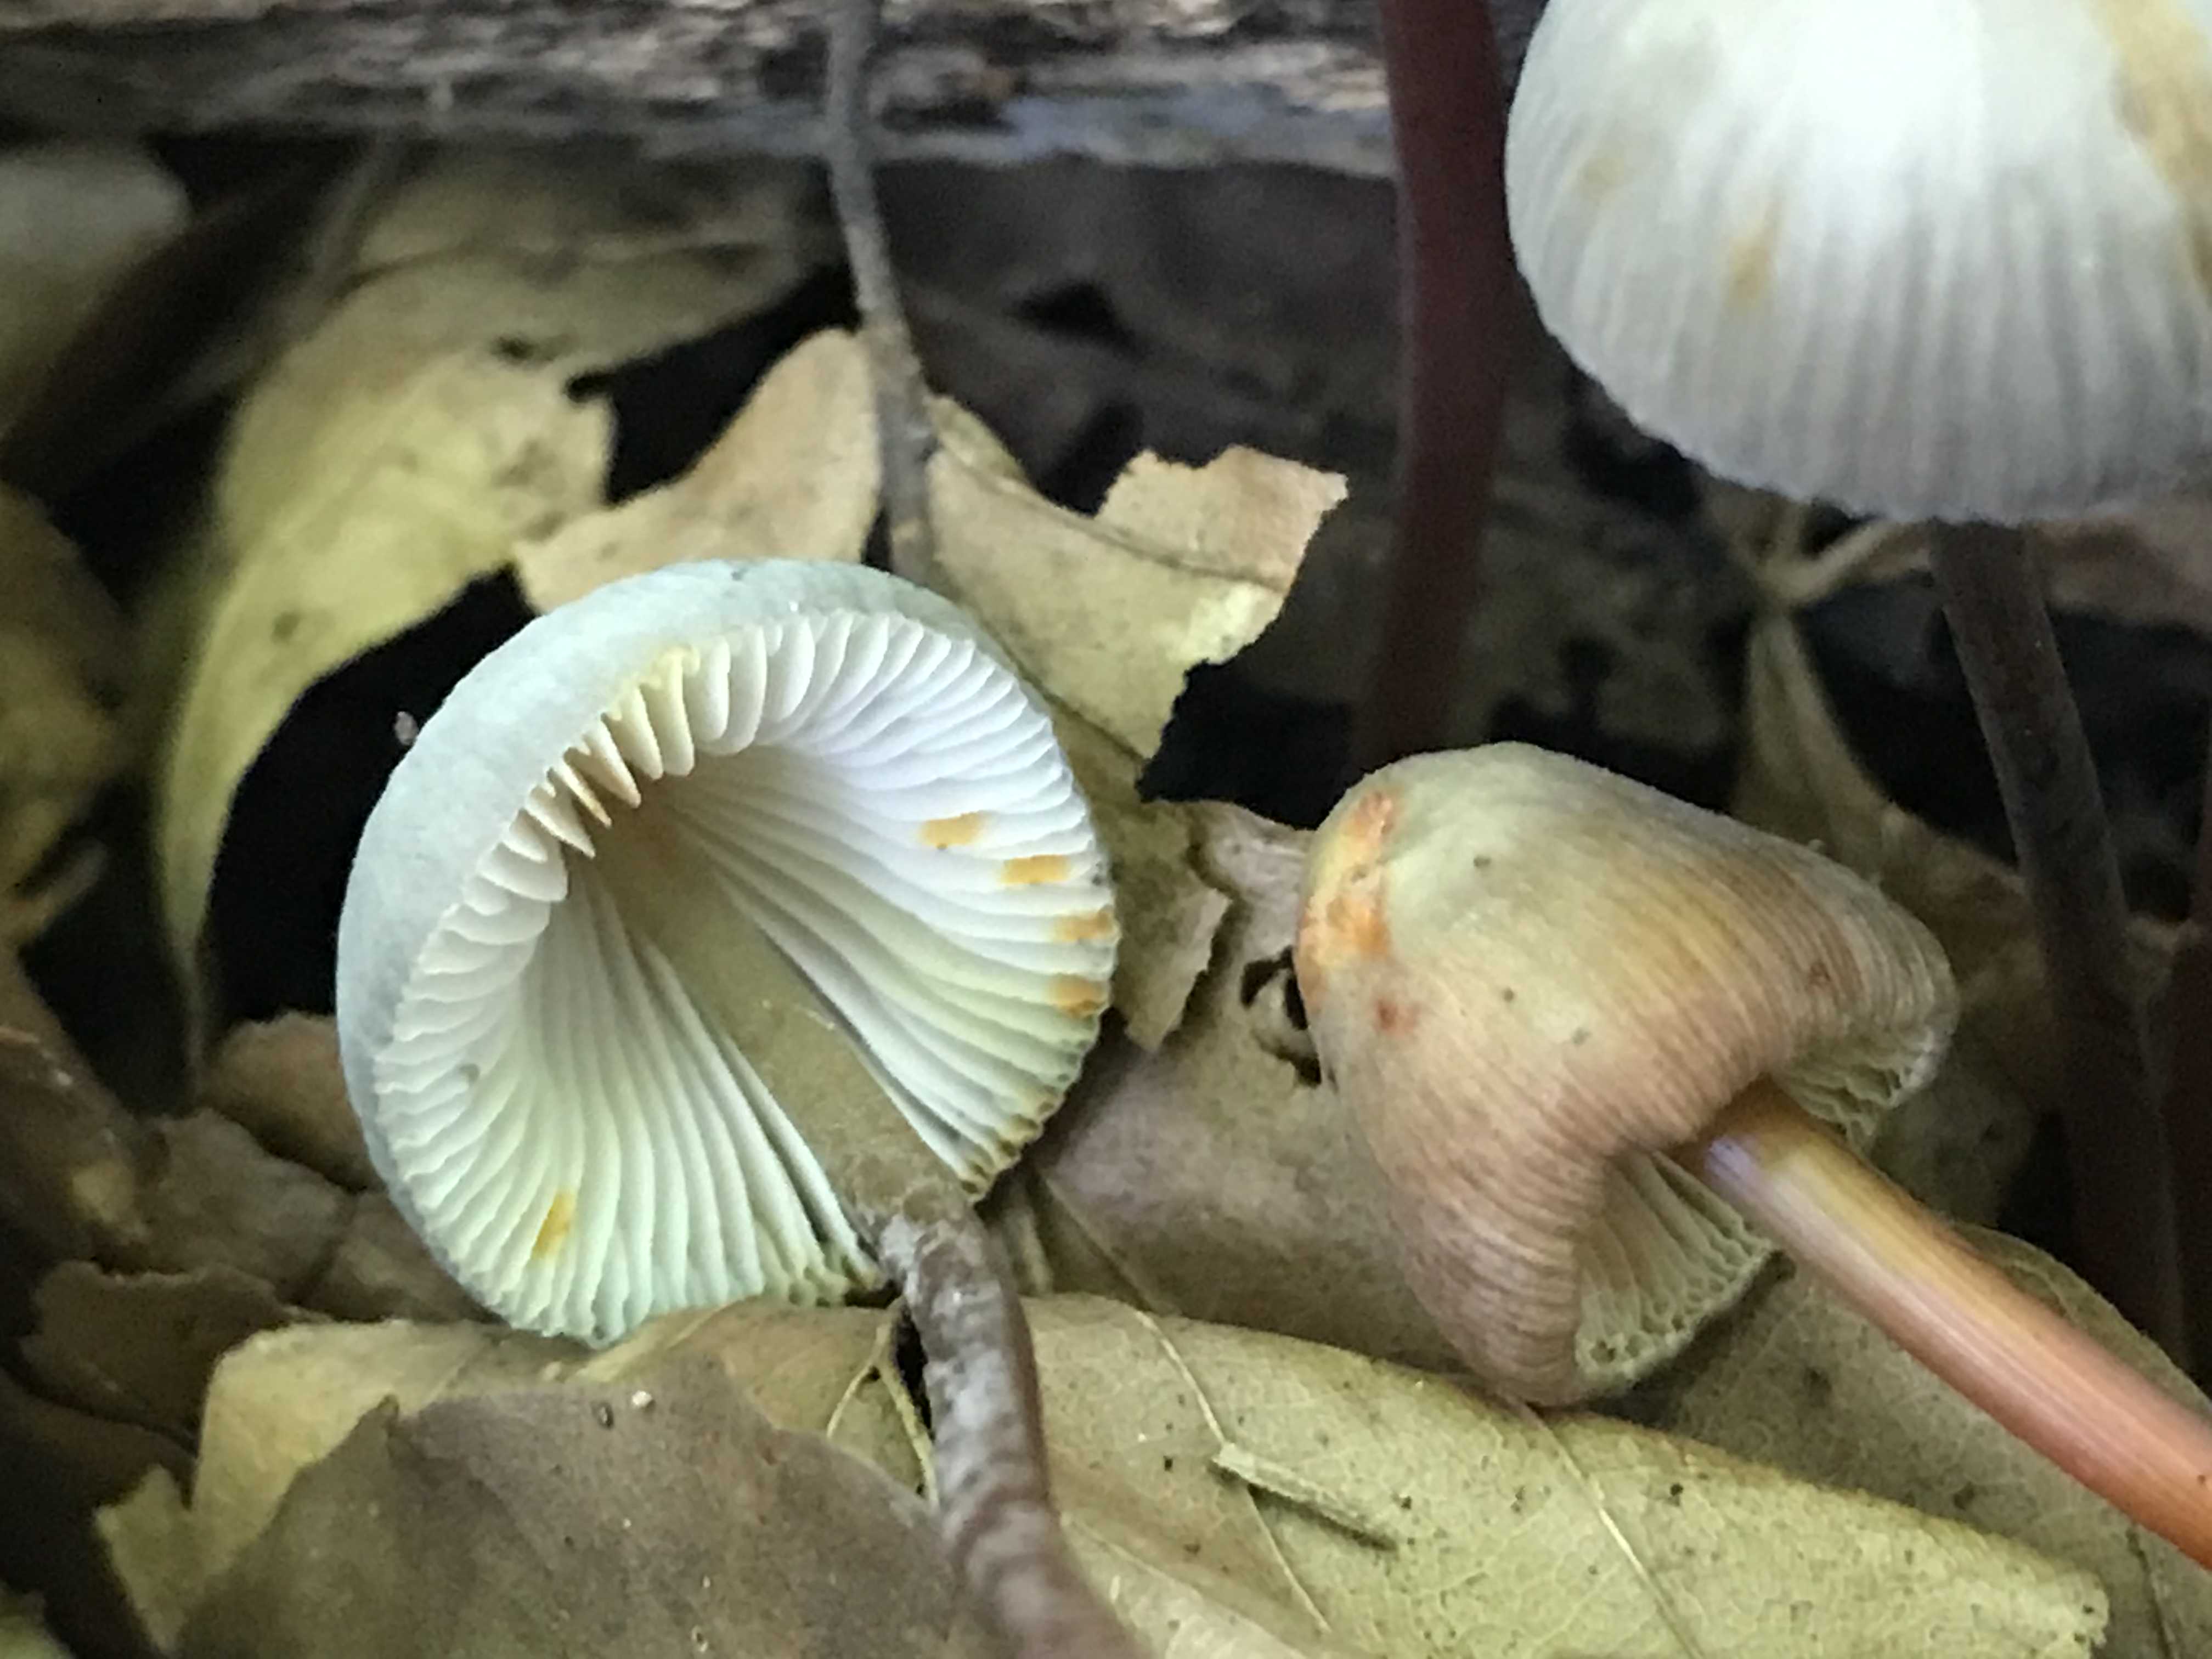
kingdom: Fungi
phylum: Basidiomycota
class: Agaricomycetes
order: Agaricales
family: Mycenaceae
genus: Mycena
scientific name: Mycena crocata
